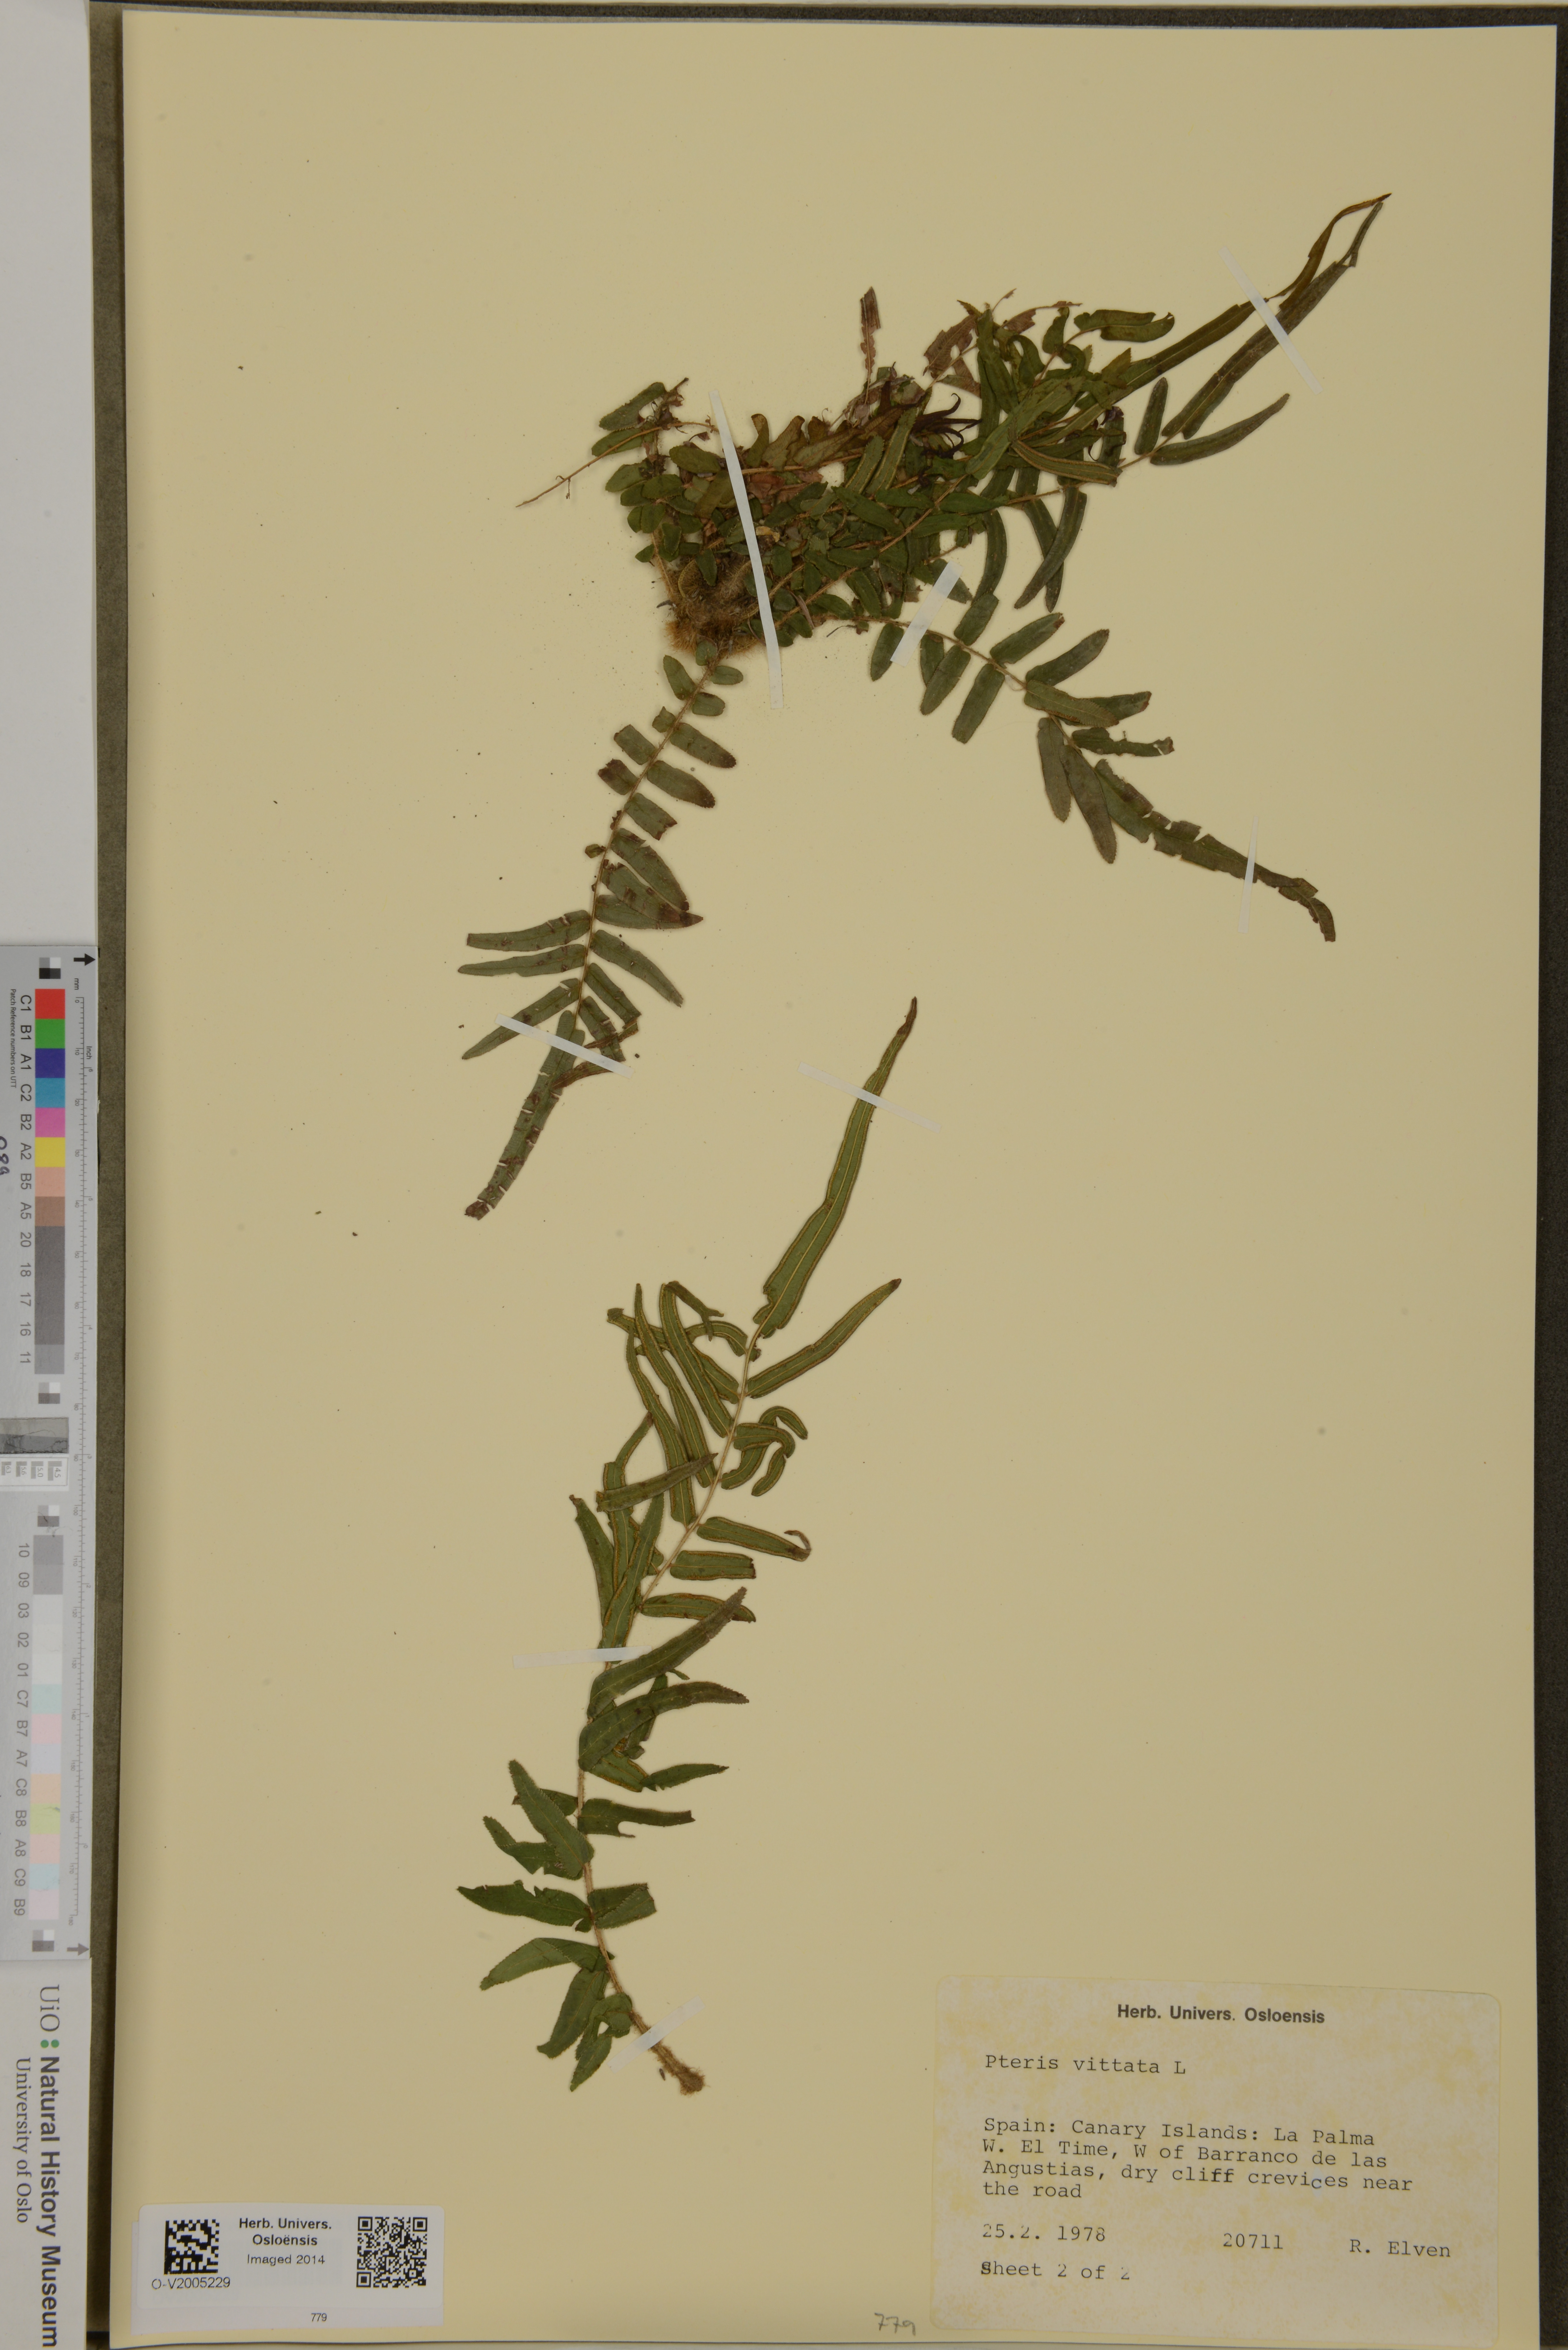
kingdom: Plantae
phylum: Tracheophyta
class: Polypodiopsida
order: Polypodiales
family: Pteridaceae
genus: Pteris
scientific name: Pteris vittata
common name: Ladder brake
